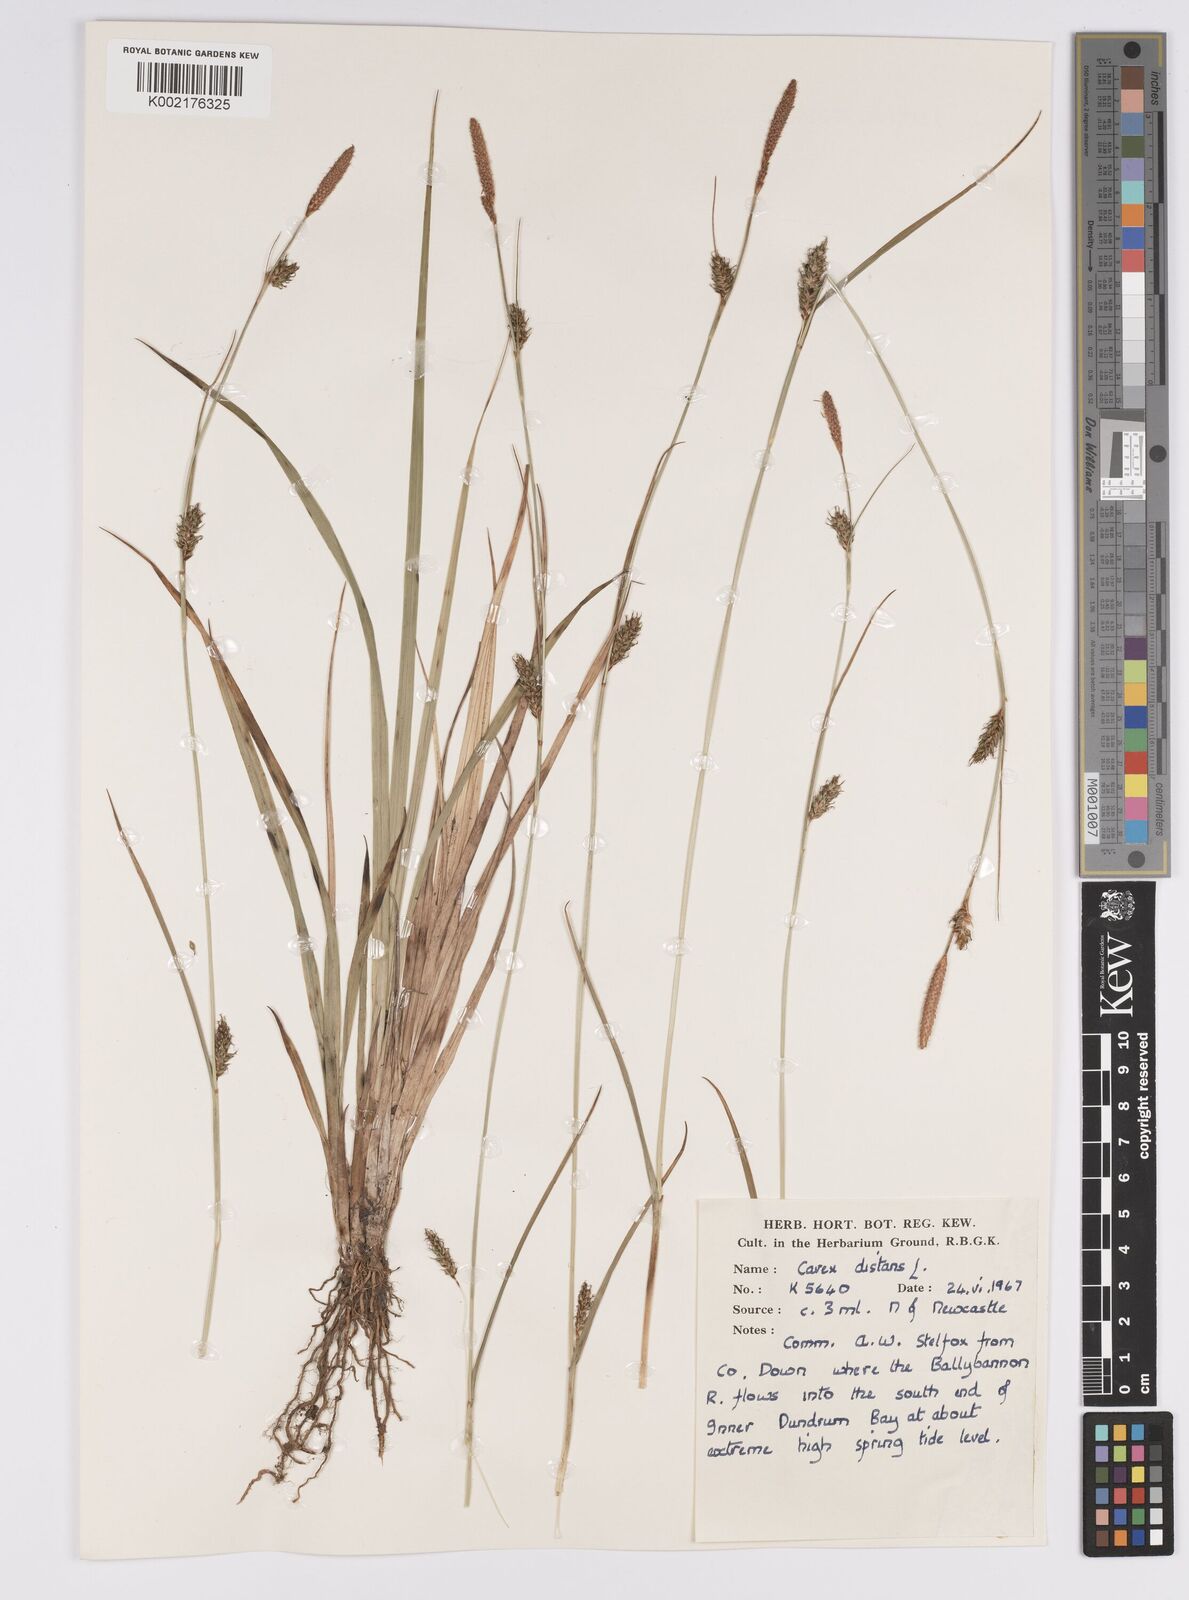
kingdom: Plantae
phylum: Tracheophyta
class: Liliopsida
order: Poales
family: Cyperaceae
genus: Carex
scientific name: Carex distans
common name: Distant sedge
